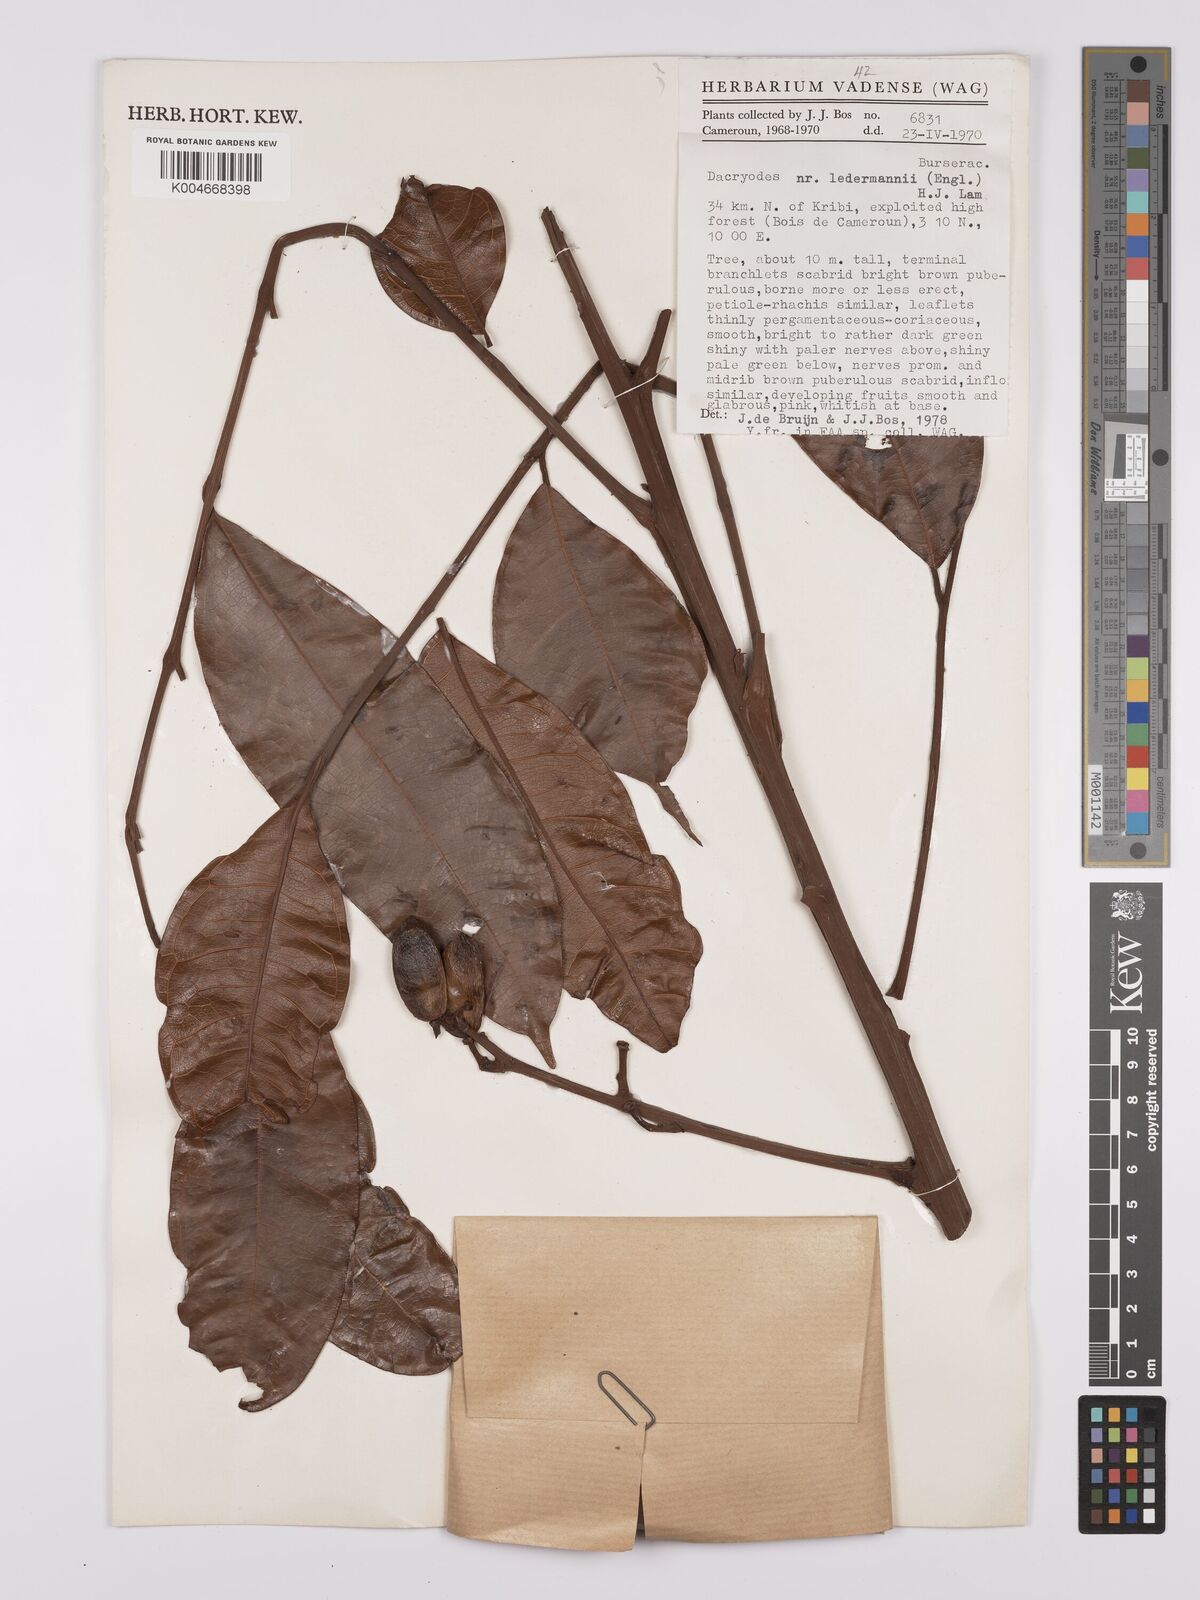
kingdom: Plantae
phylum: Tracheophyta
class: Magnoliopsida
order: Sapindales
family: Burseraceae
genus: Pachylobus
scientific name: Pachylobus ledermannii
